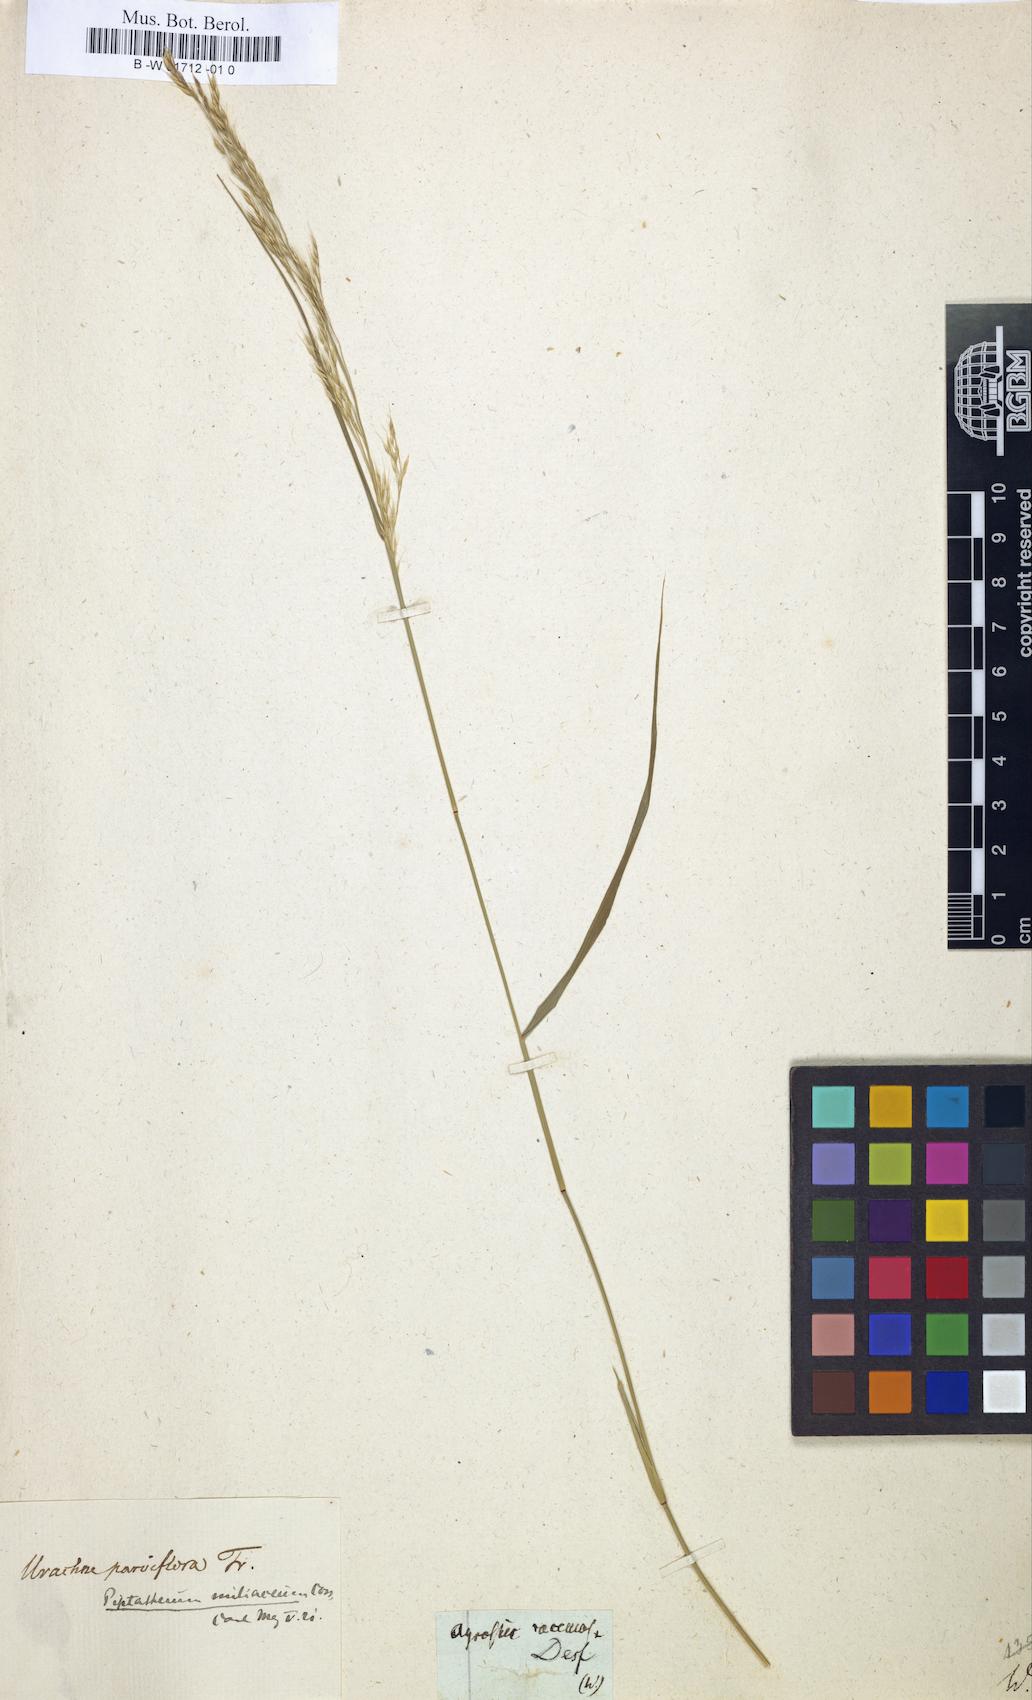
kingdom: Plantae
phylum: Tracheophyta
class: Liliopsida
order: Poales
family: Poaceae
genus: Muhlenbergia
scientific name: Muhlenbergia racemosa
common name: Green muhly
